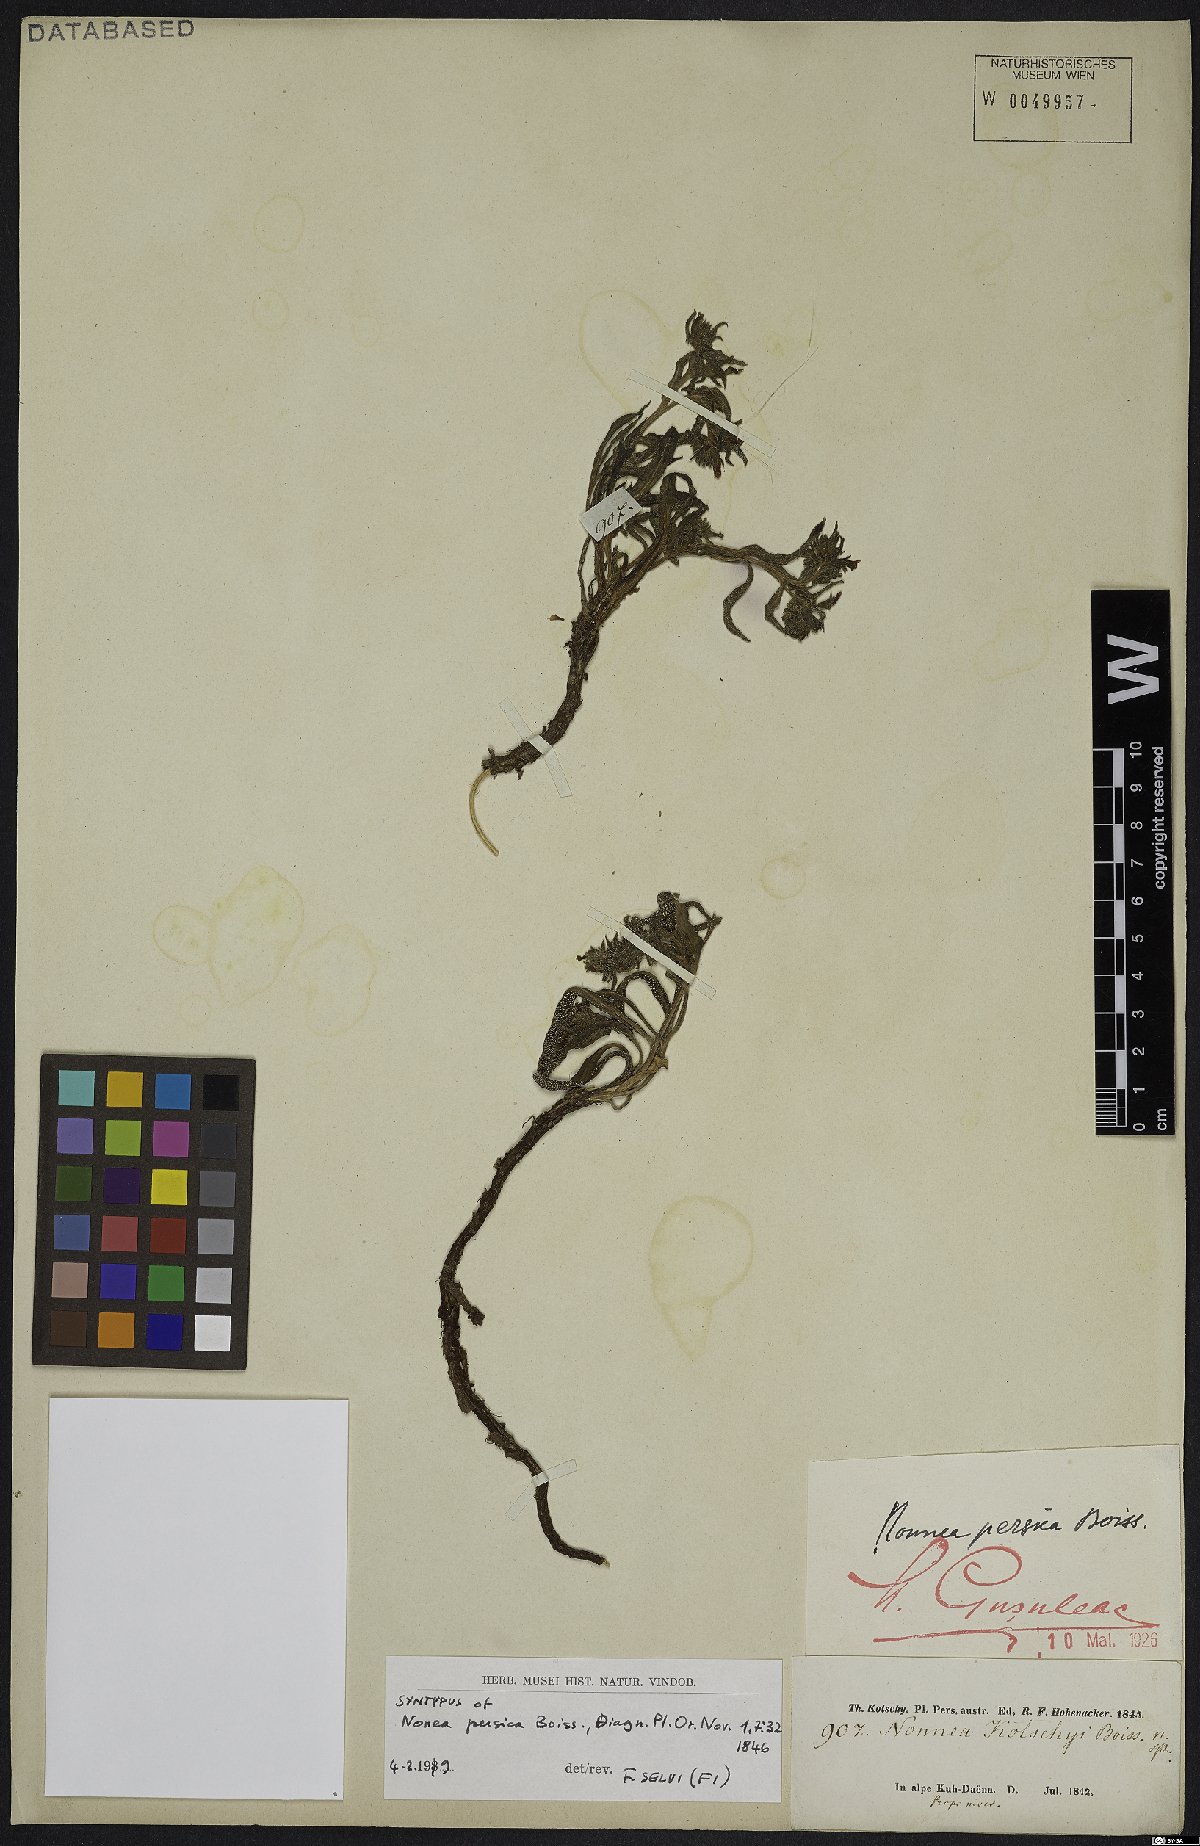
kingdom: Plantae
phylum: Tracheophyta
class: Magnoliopsida
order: Boraginales
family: Boraginaceae
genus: Nonea
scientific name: Nonea persica
